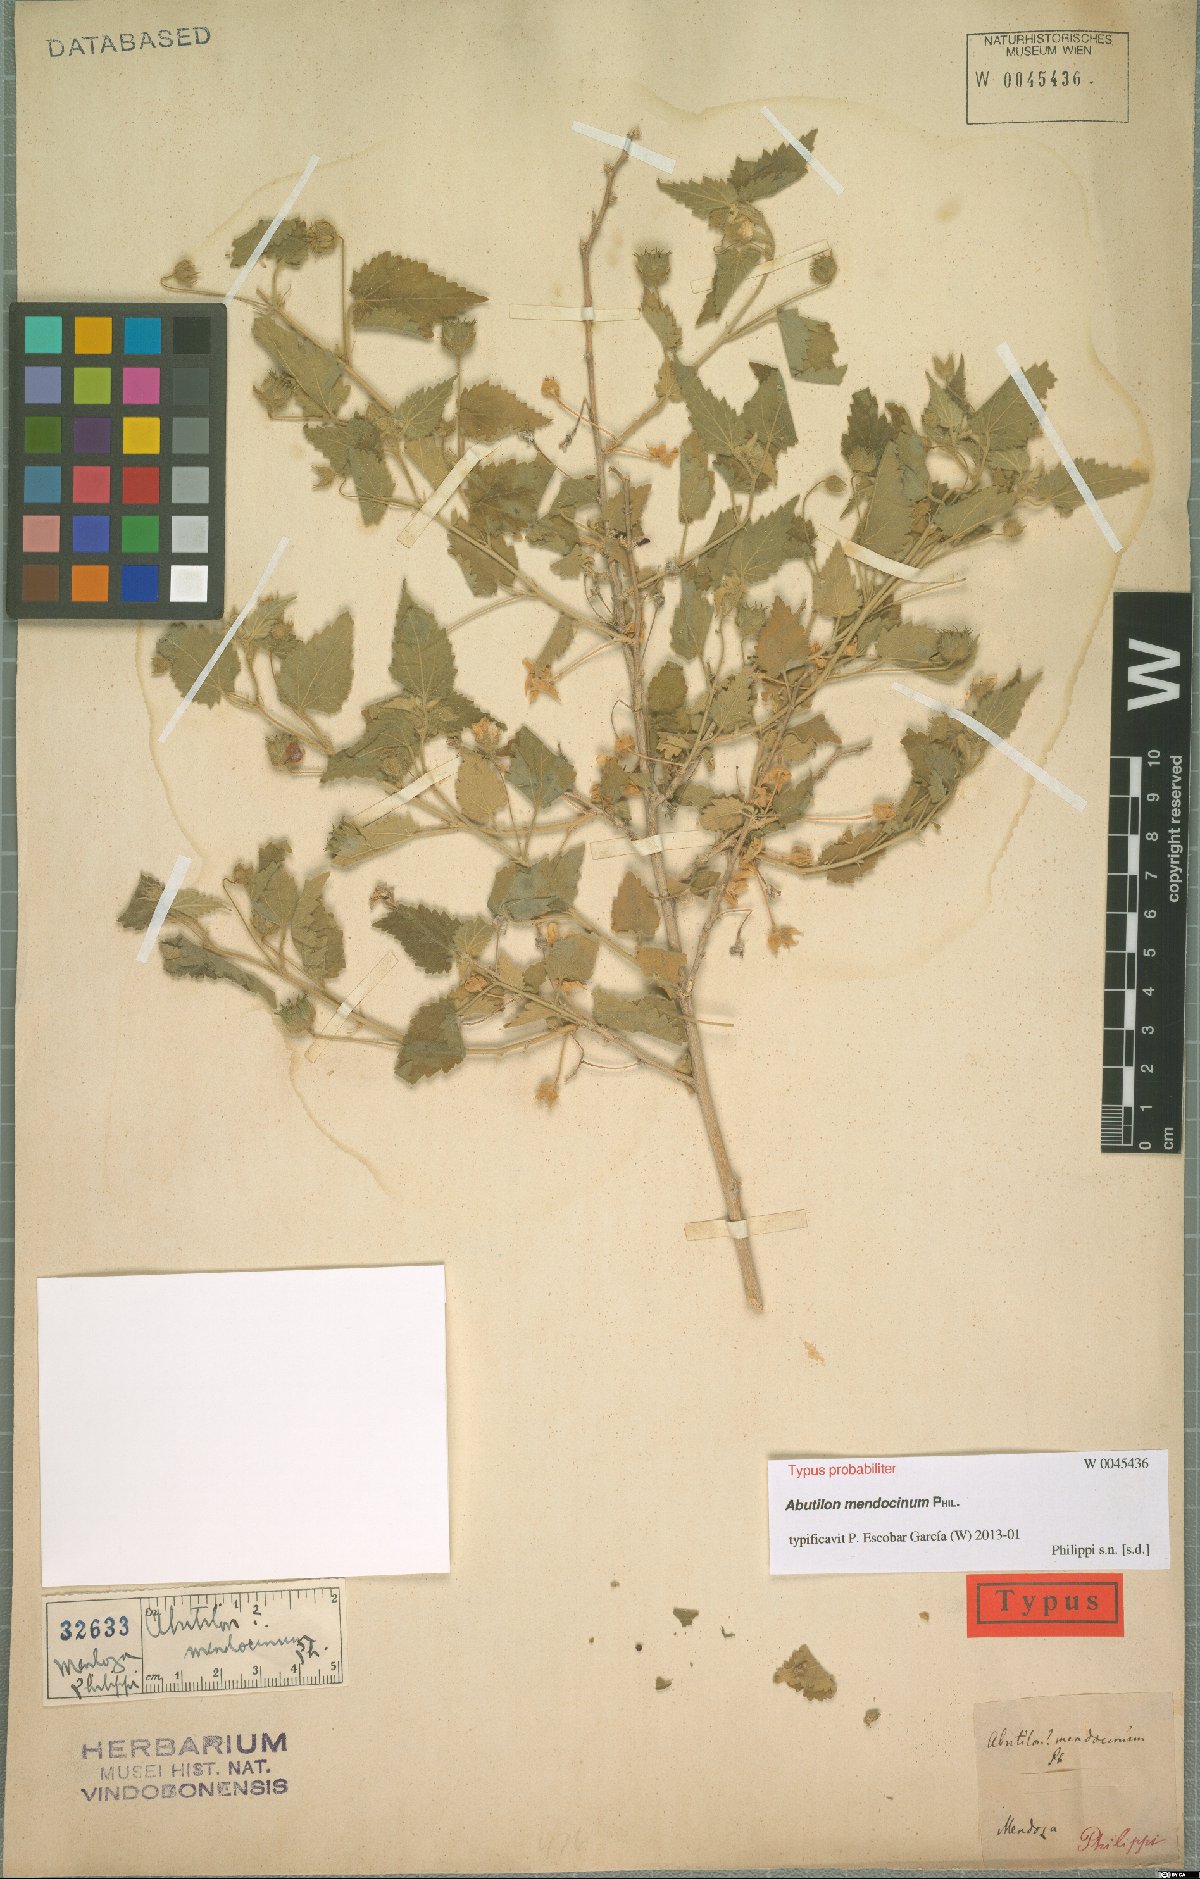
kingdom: Plantae
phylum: Tracheophyta
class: Magnoliopsida
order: Malvales
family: Malvaceae
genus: Pseudabutilon
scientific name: Pseudabutilon virgatum
